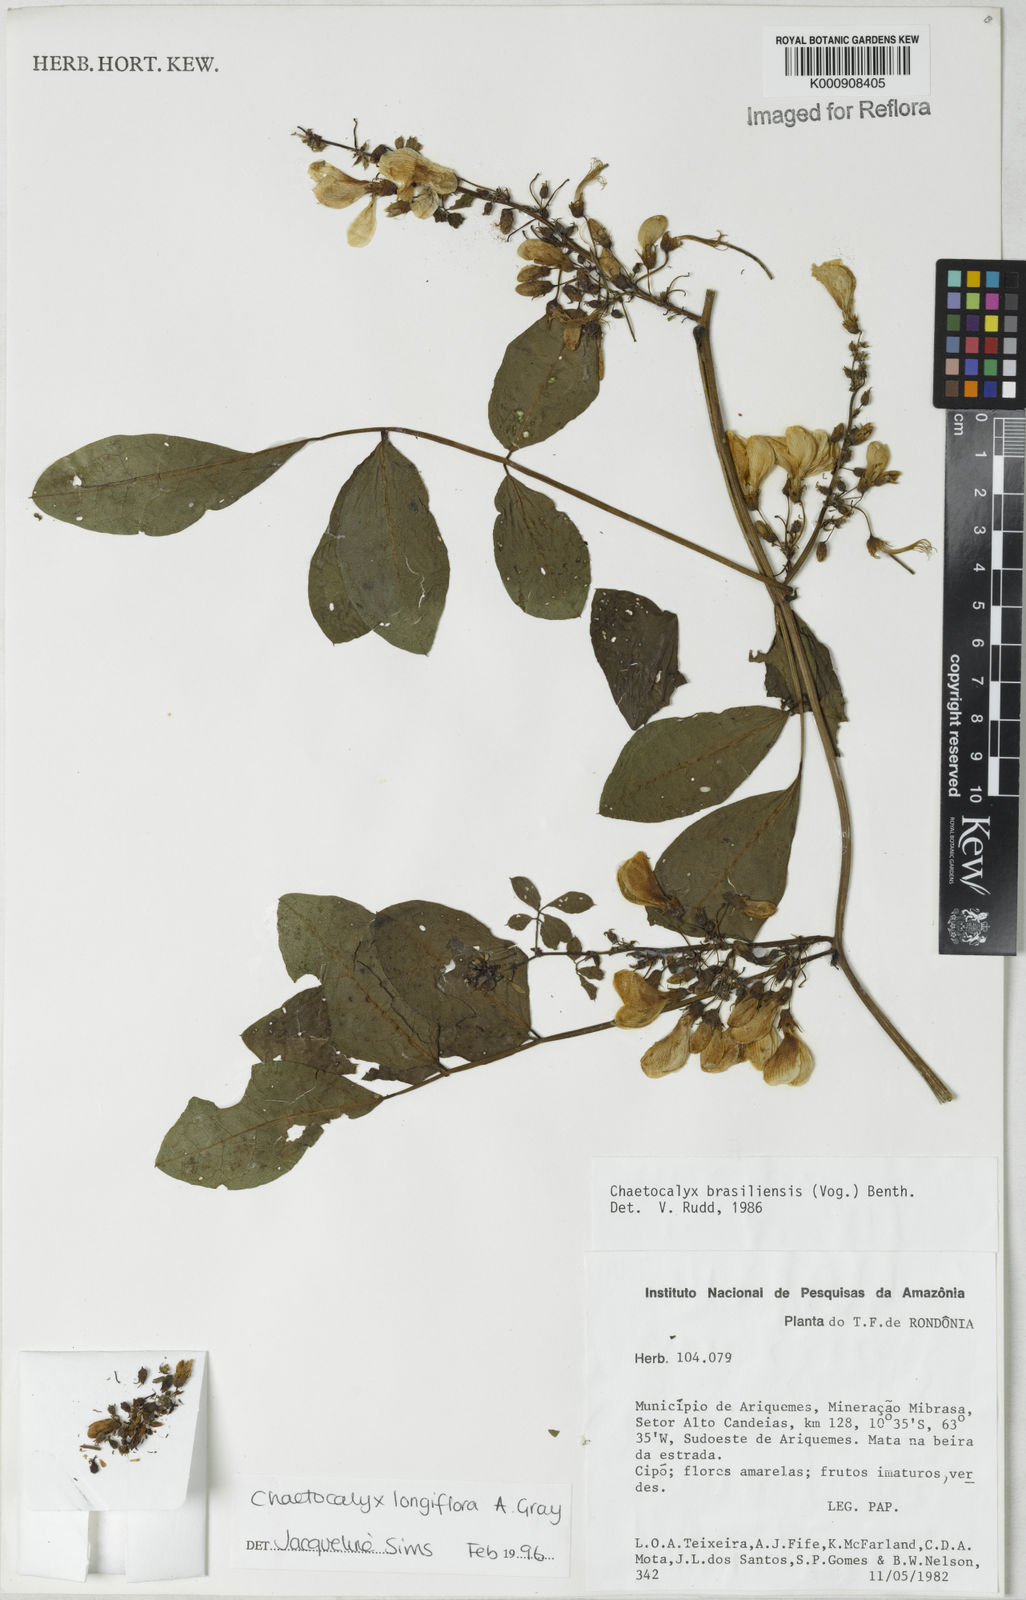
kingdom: Plantae
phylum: Tracheophyta
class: Magnoliopsida
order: Fabales
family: Fabaceae
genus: Nissolia
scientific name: Nissolia longiflora
